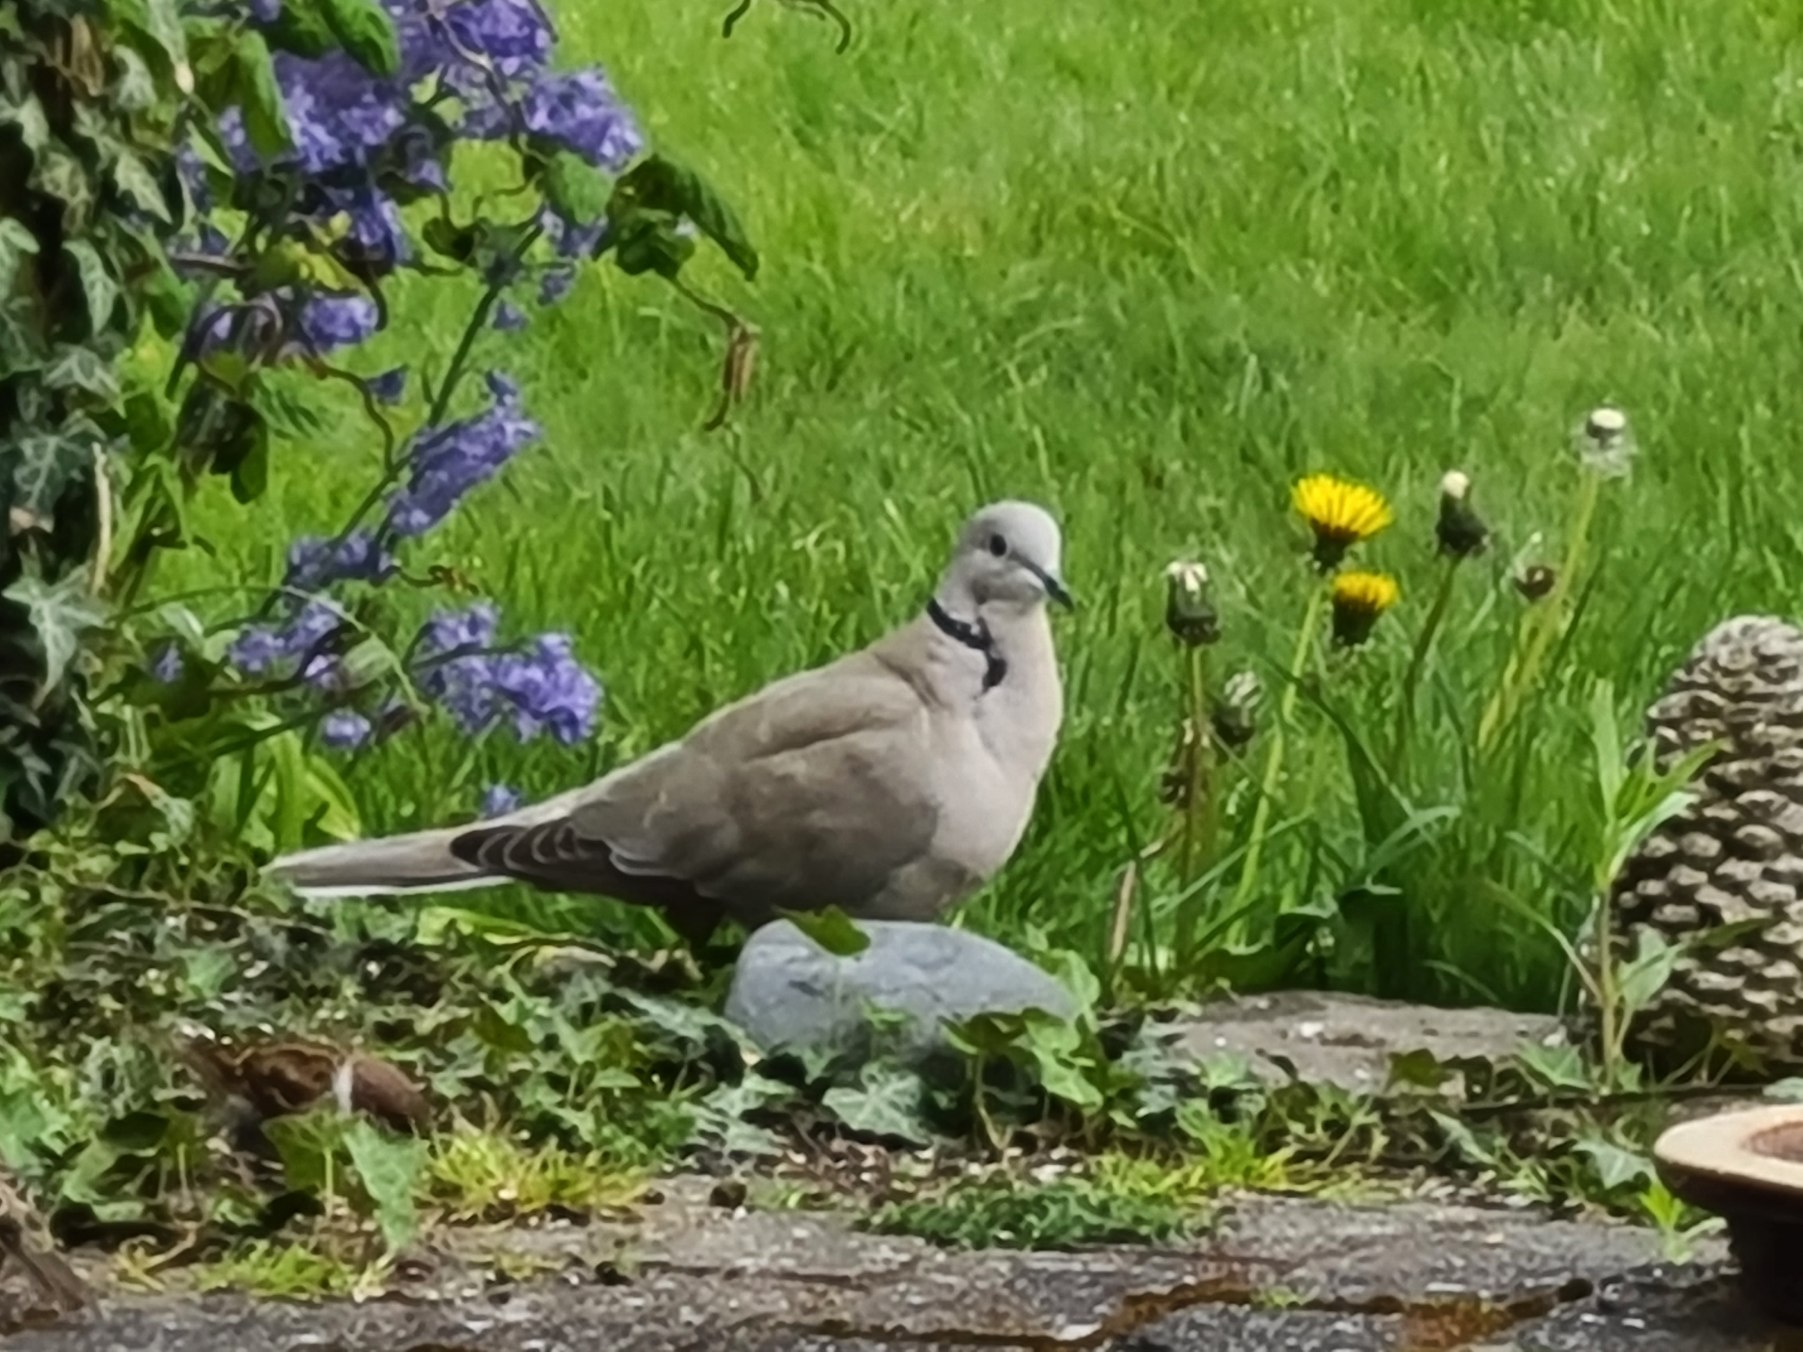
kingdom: Animalia
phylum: Chordata
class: Aves
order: Columbiformes
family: Columbidae
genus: Streptopelia
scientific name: Streptopelia decaocto
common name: Tyrkerdue
